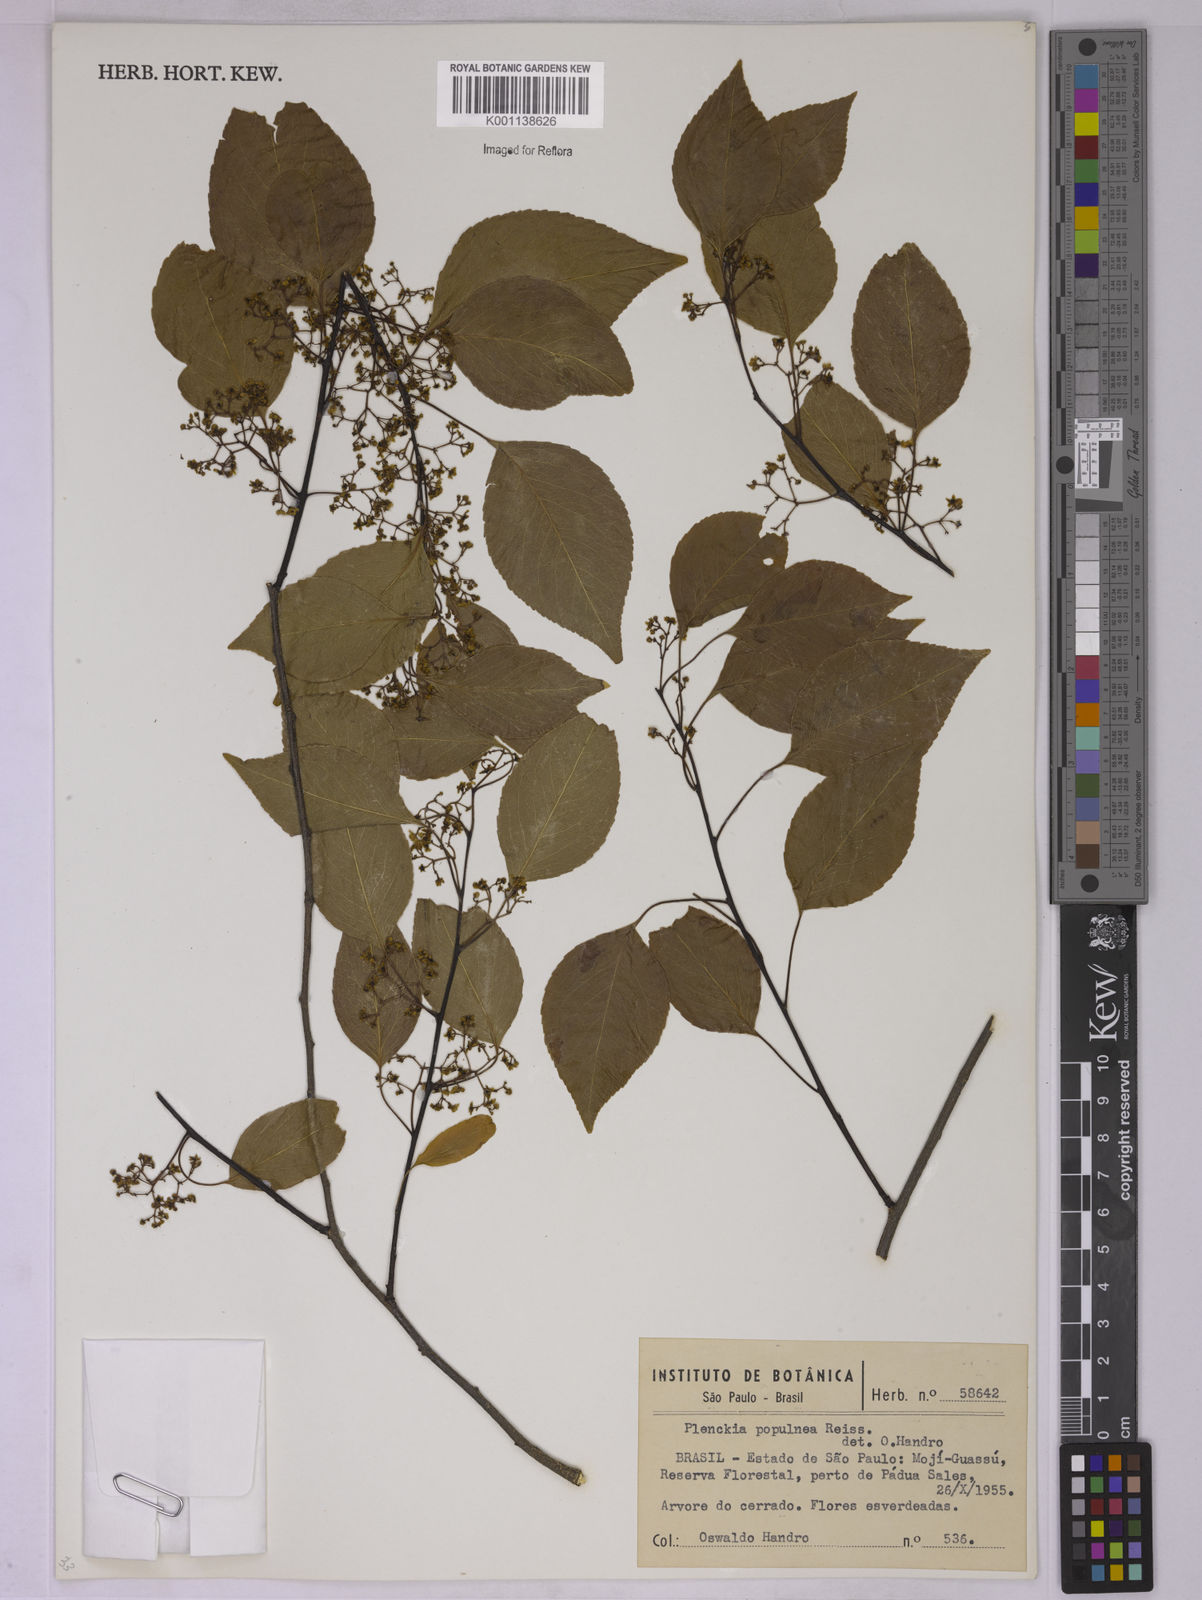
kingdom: Plantae
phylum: Tracheophyta
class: Magnoliopsida
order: Celastrales
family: Celastraceae
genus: Plenckia
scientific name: Plenckia populnea
